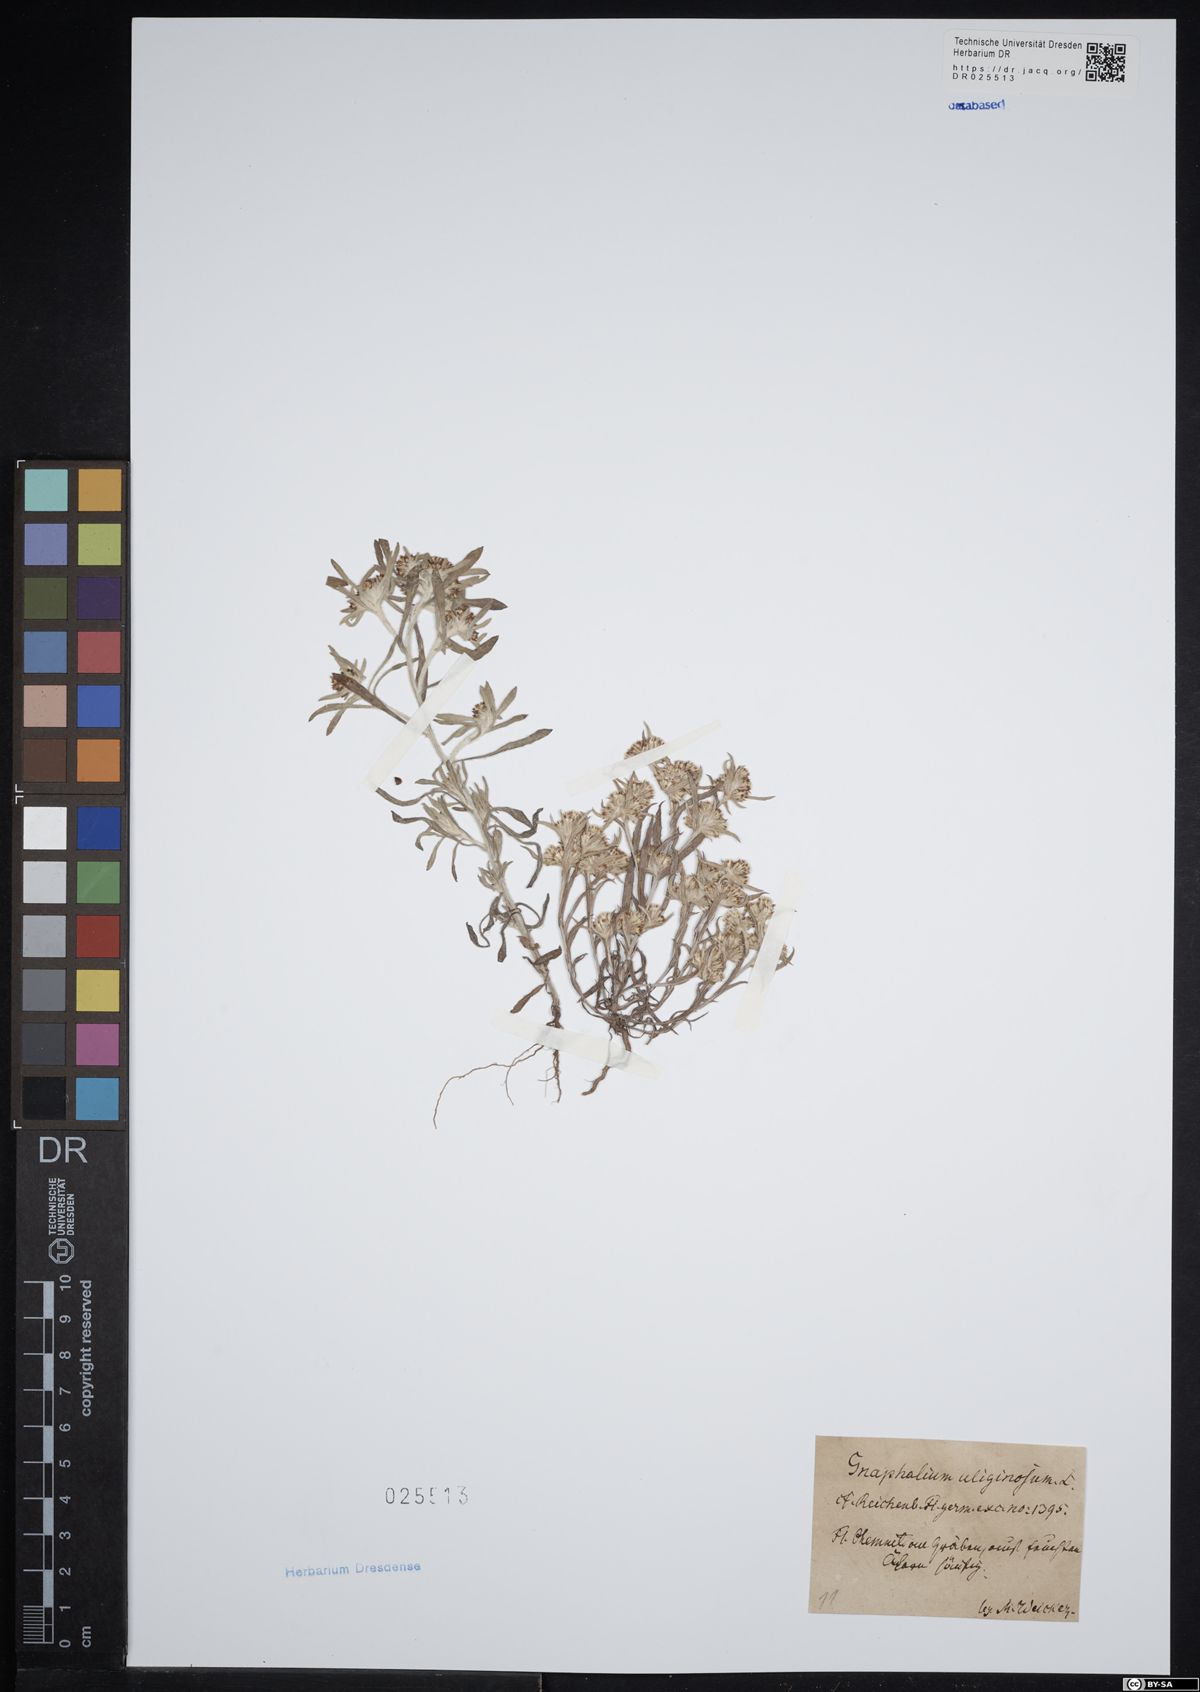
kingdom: Plantae
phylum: Tracheophyta
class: Magnoliopsida
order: Asterales
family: Asteraceae
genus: Gnaphalium
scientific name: Gnaphalium uliginosum
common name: Marsh cudweed
